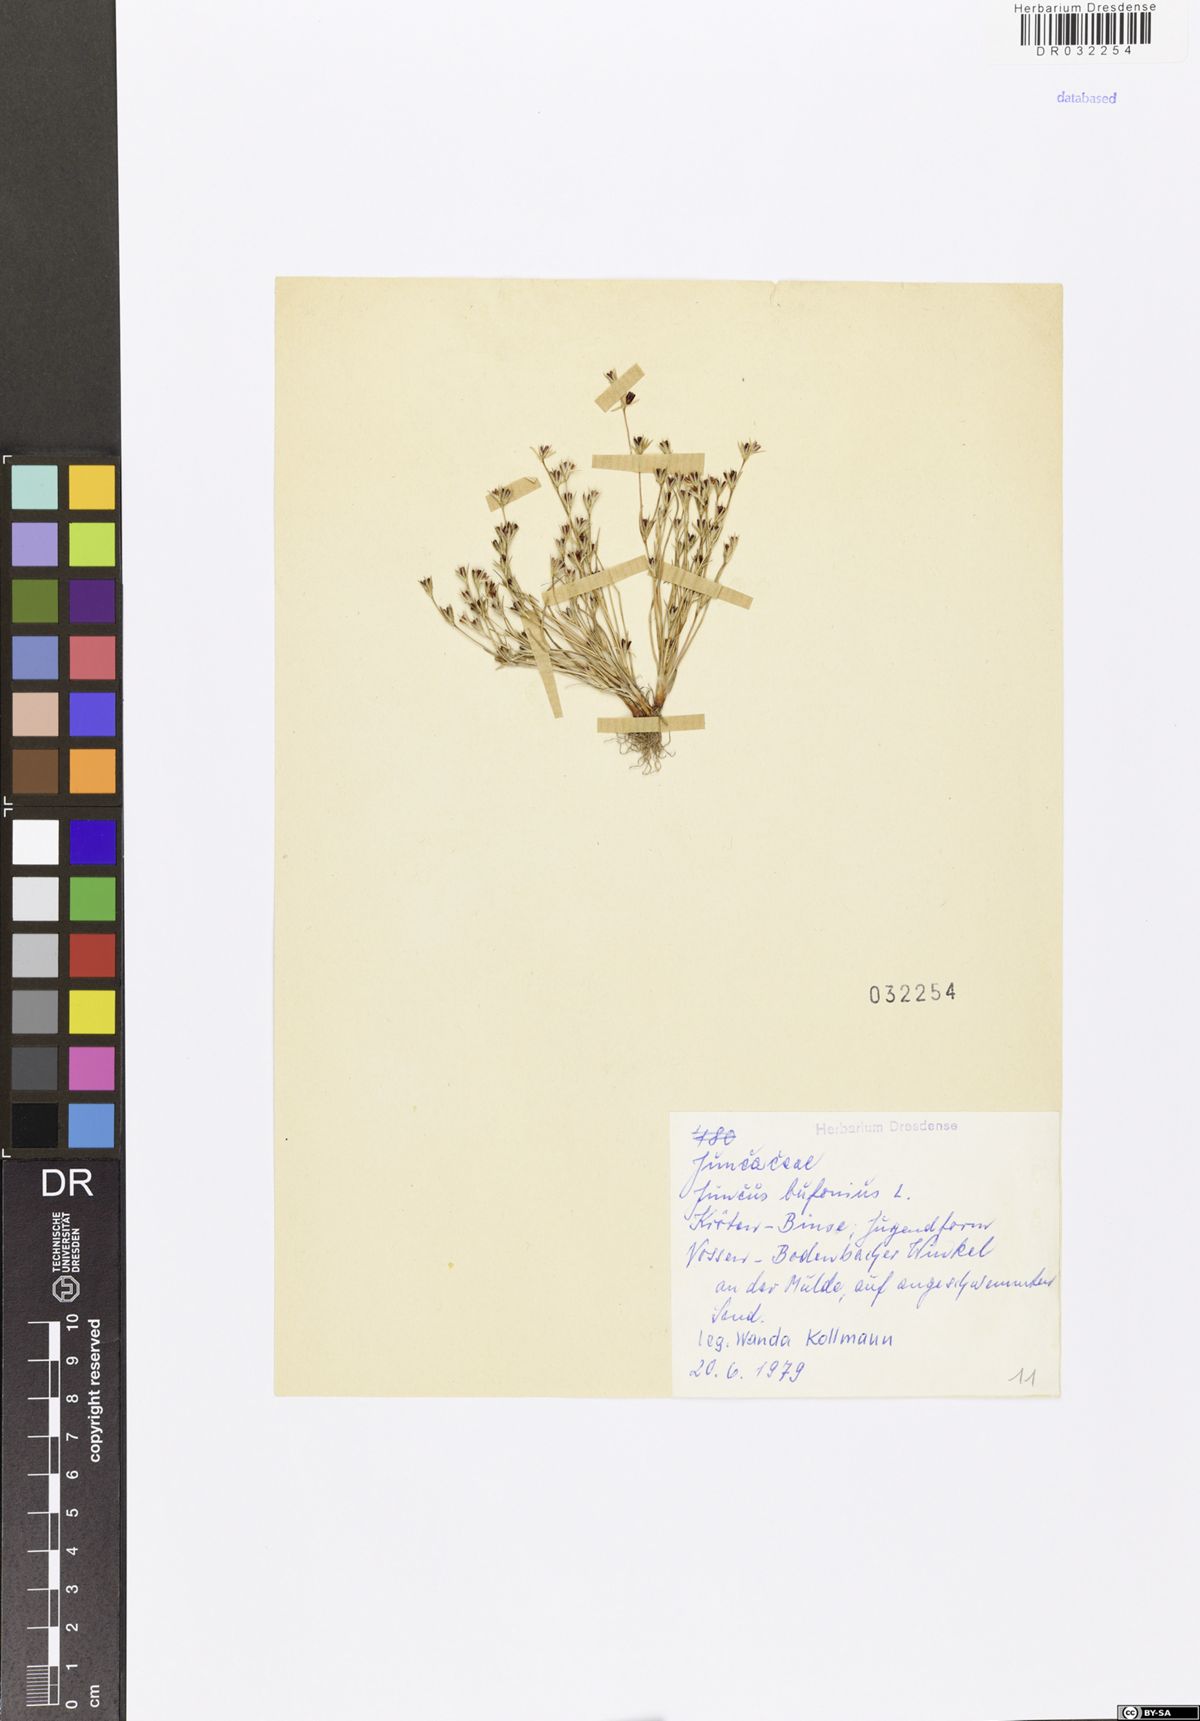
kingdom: Plantae
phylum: Tracheophyta
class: Liliopsida
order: Poales
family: Juncaceae
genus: Juncus
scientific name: Juncus bufonius
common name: Toad rush
